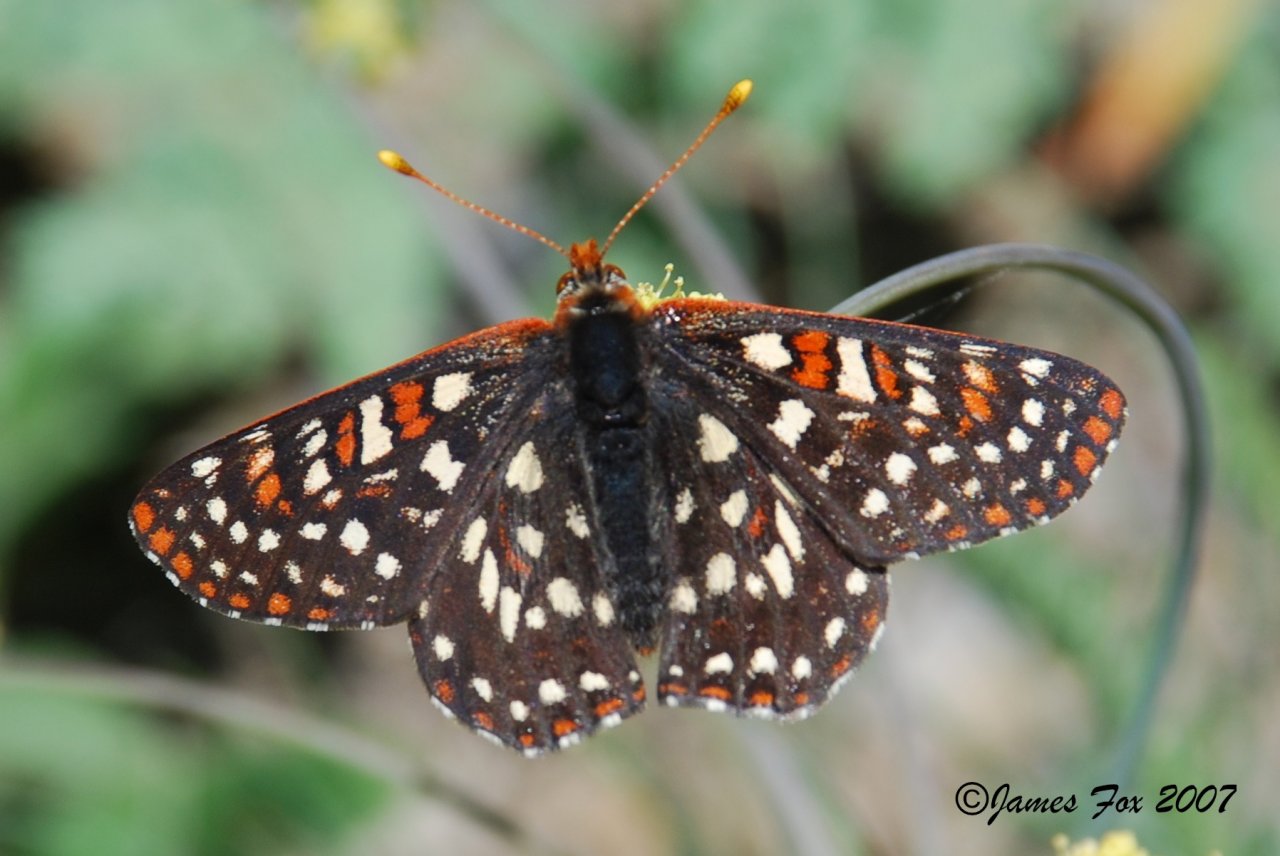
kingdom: Animalia
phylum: Arthropoda
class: Insecta
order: Lepidoptera
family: Nymphalidae
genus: Occidryas
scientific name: Occidryas colon
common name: Snowberry Checkerspot
